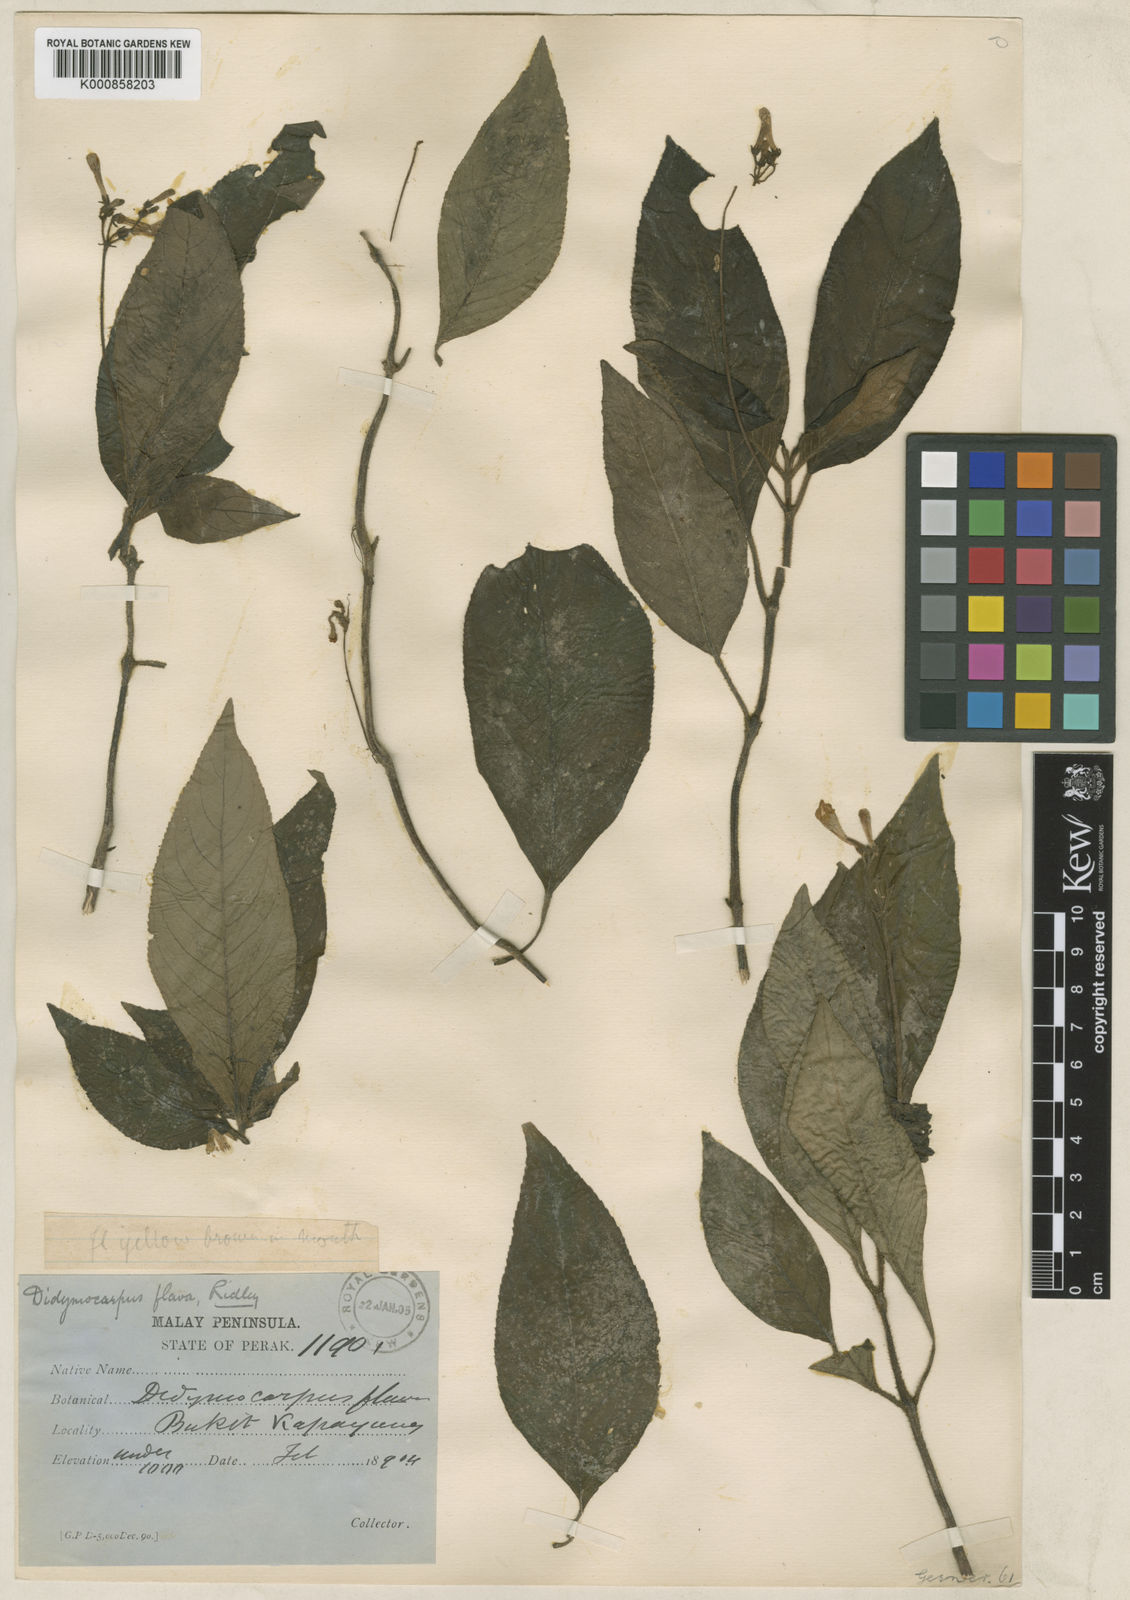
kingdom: Plantae
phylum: Tracheophyta
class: Magnoliopsida
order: Lamiales
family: Gesneriaceae
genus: Codonoboea
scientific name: Codonoboea flava
